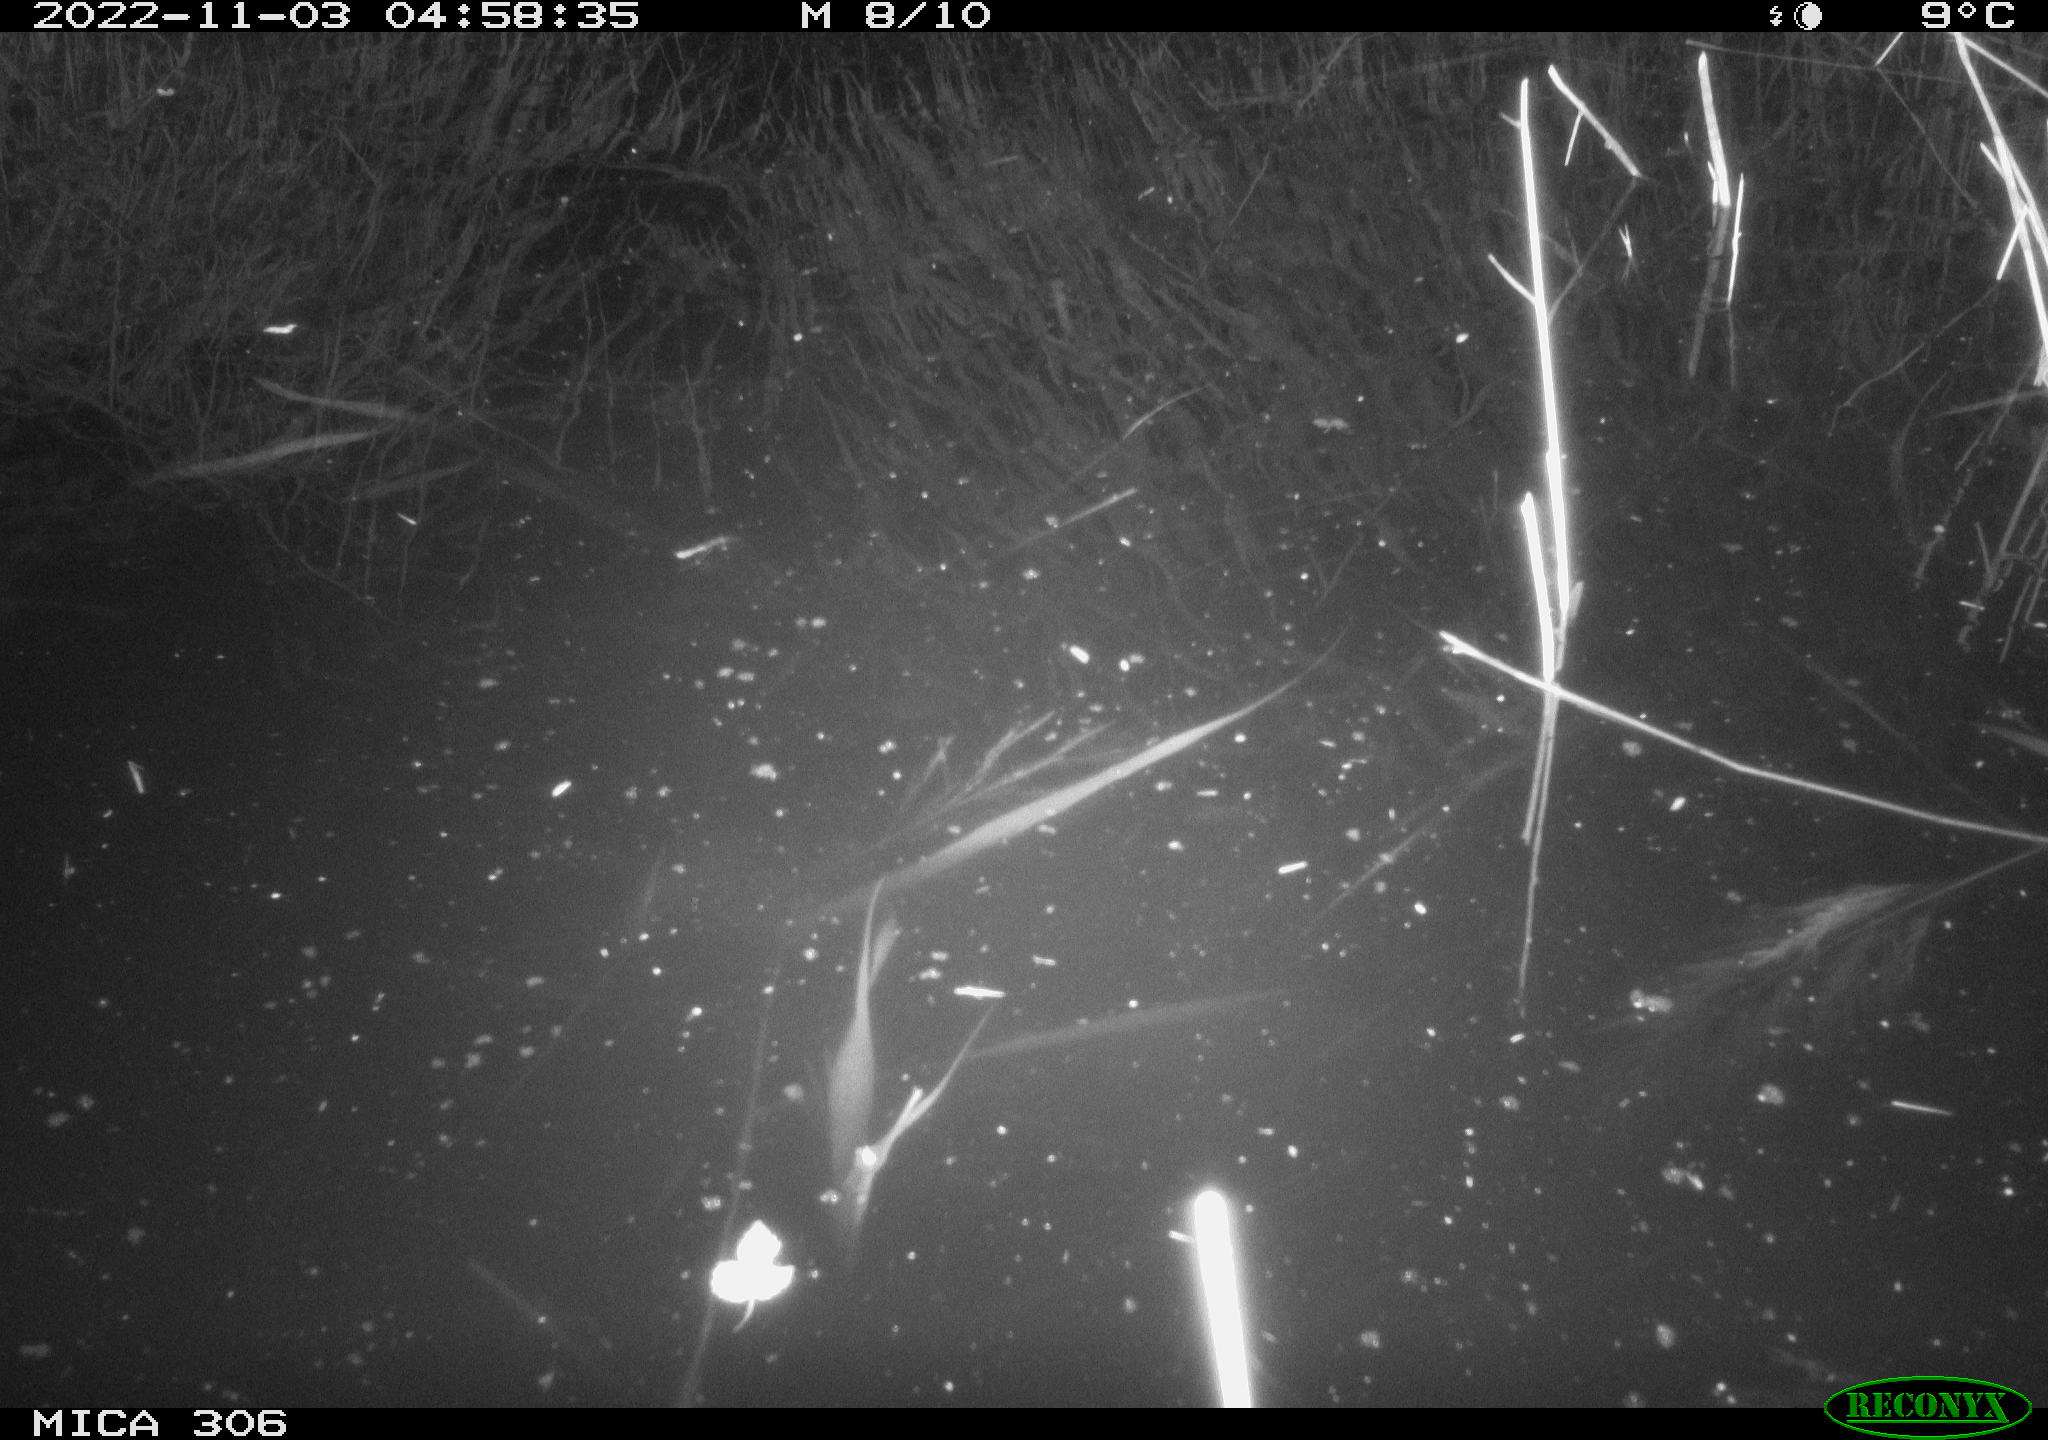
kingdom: Animalia
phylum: Chordata
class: Mammalia
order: Rodentia
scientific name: Rodentia
